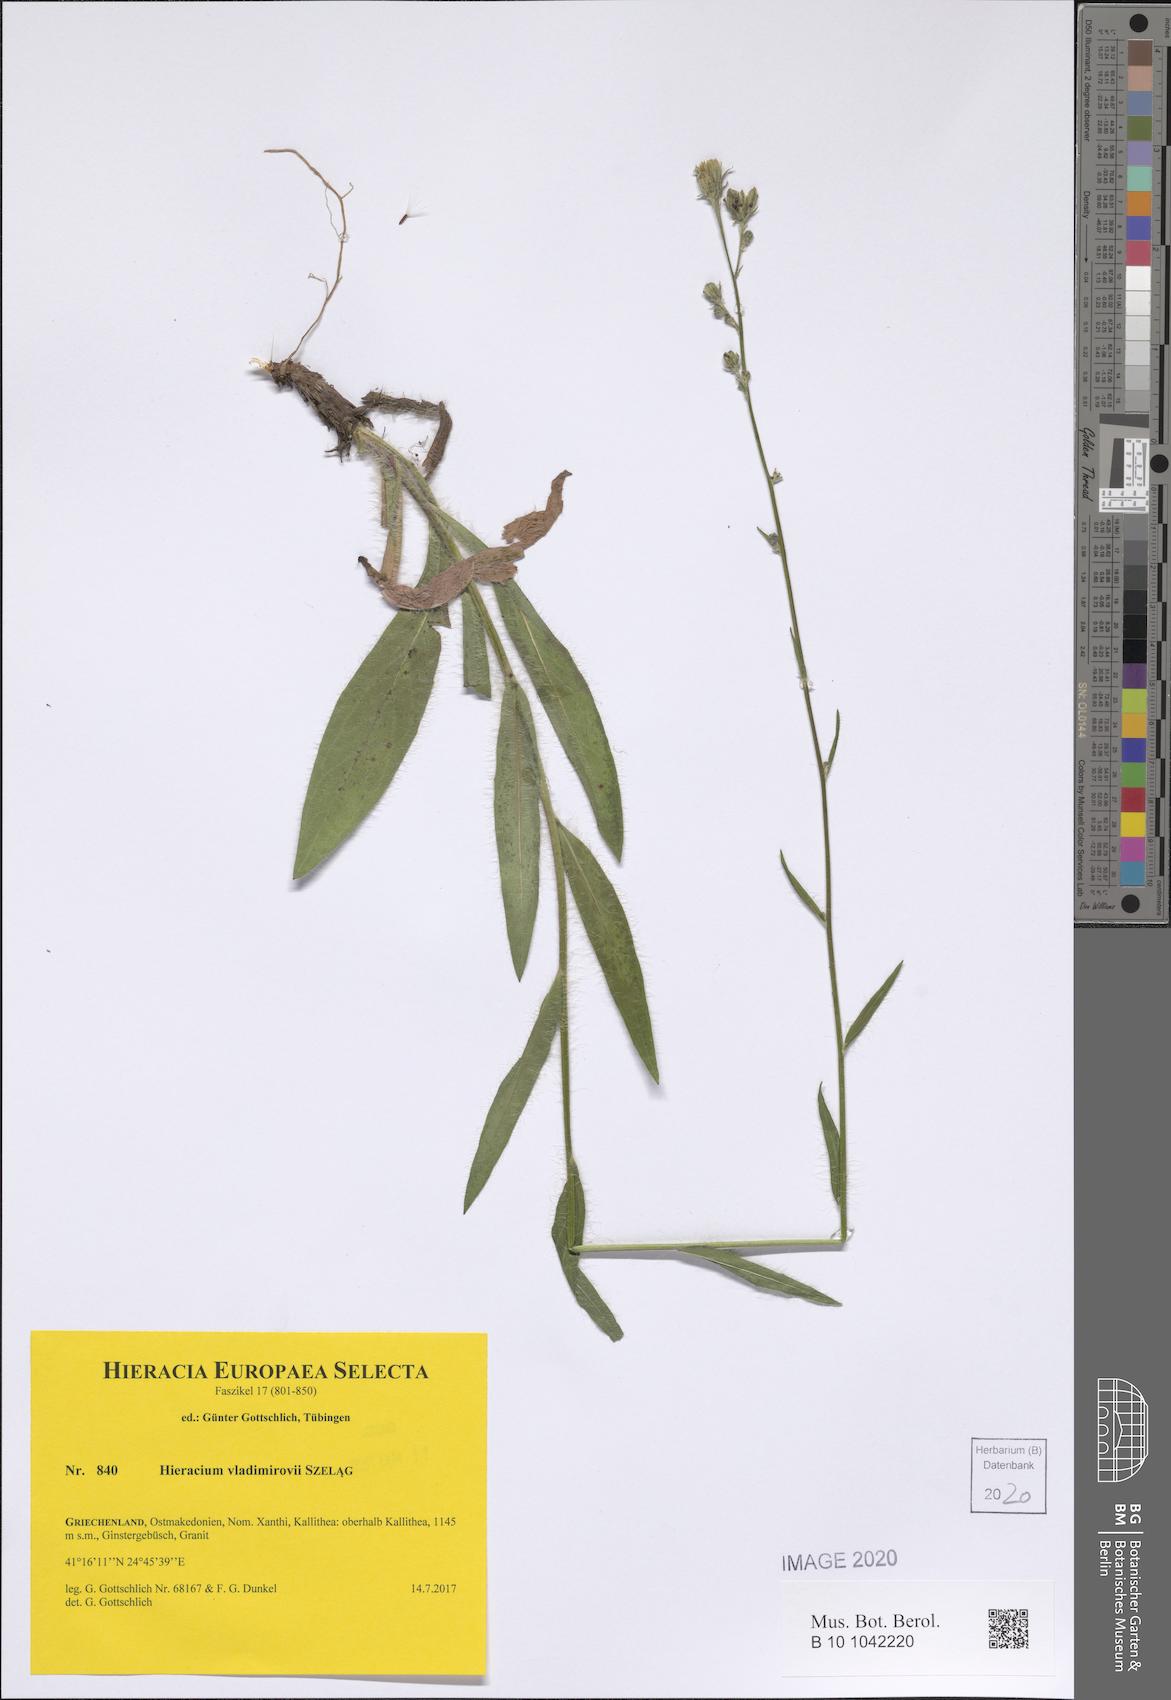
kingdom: Plantae
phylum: Tracheophyta
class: Magnoliopsida
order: Asterales
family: Asteraceae
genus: Hieracium
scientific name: Hieracium vladimirovii
